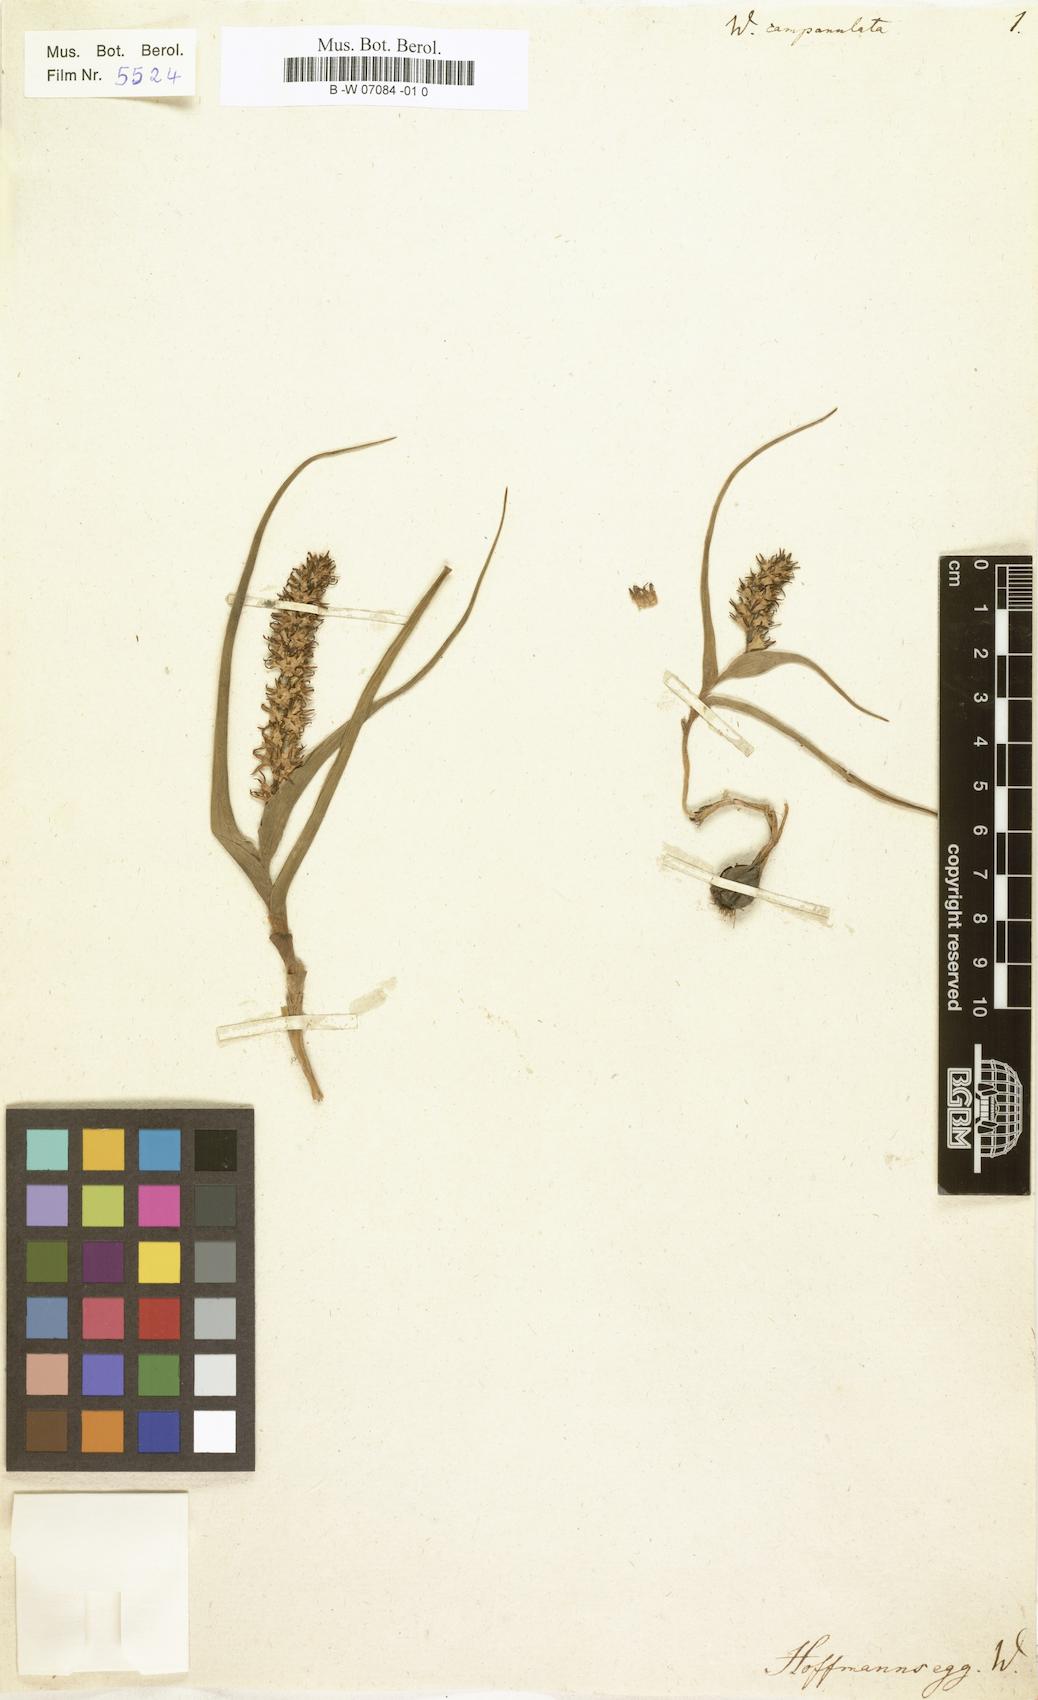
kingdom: Plantae
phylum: Tracheophyta
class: Liliopsida
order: Liliales
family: Colchicaceae
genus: Wurmbea
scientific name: Wurmbea spicata
